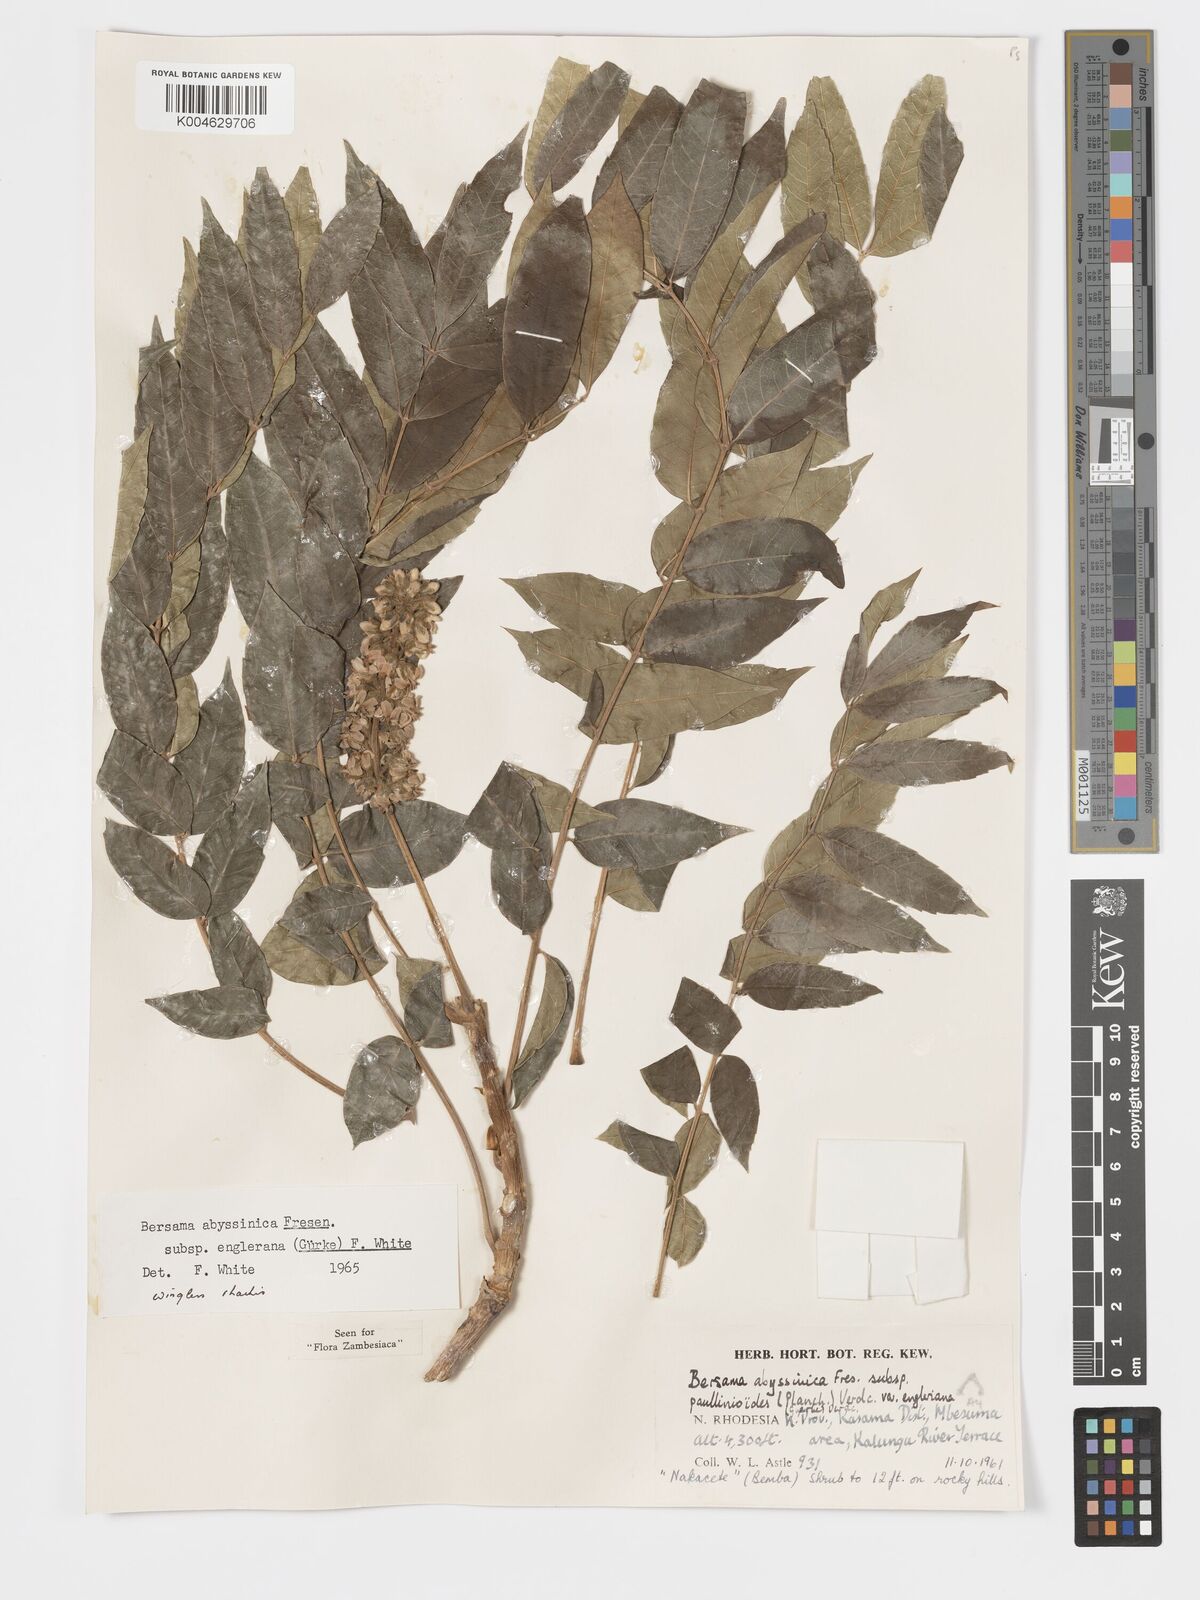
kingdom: Plantae
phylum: Tracheophyta
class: Magnoliopsida
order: Geraniales
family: Melianthaceae
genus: Bersama
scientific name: Bersama abyssinica
